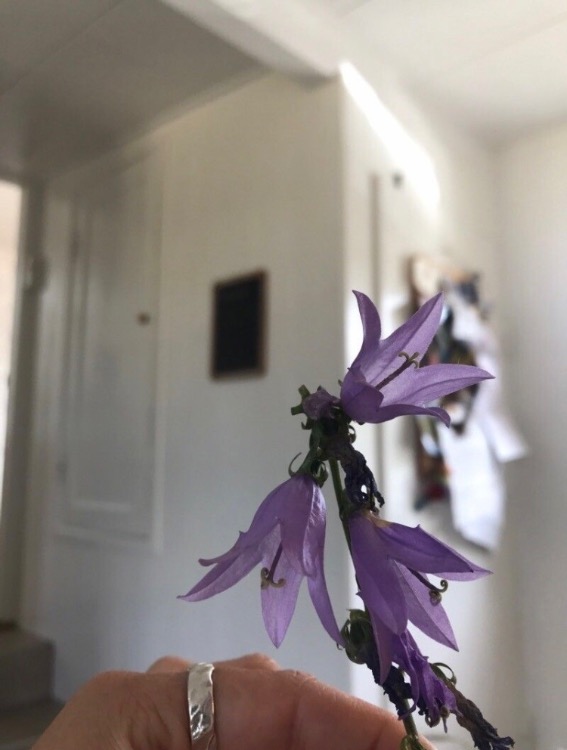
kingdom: Plantae
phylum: Tracheophyta
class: Magnoliopsida
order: Asterales
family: Campanulaceae
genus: Campanula
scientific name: Campanula rapunculoides
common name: Ensidig klokke
